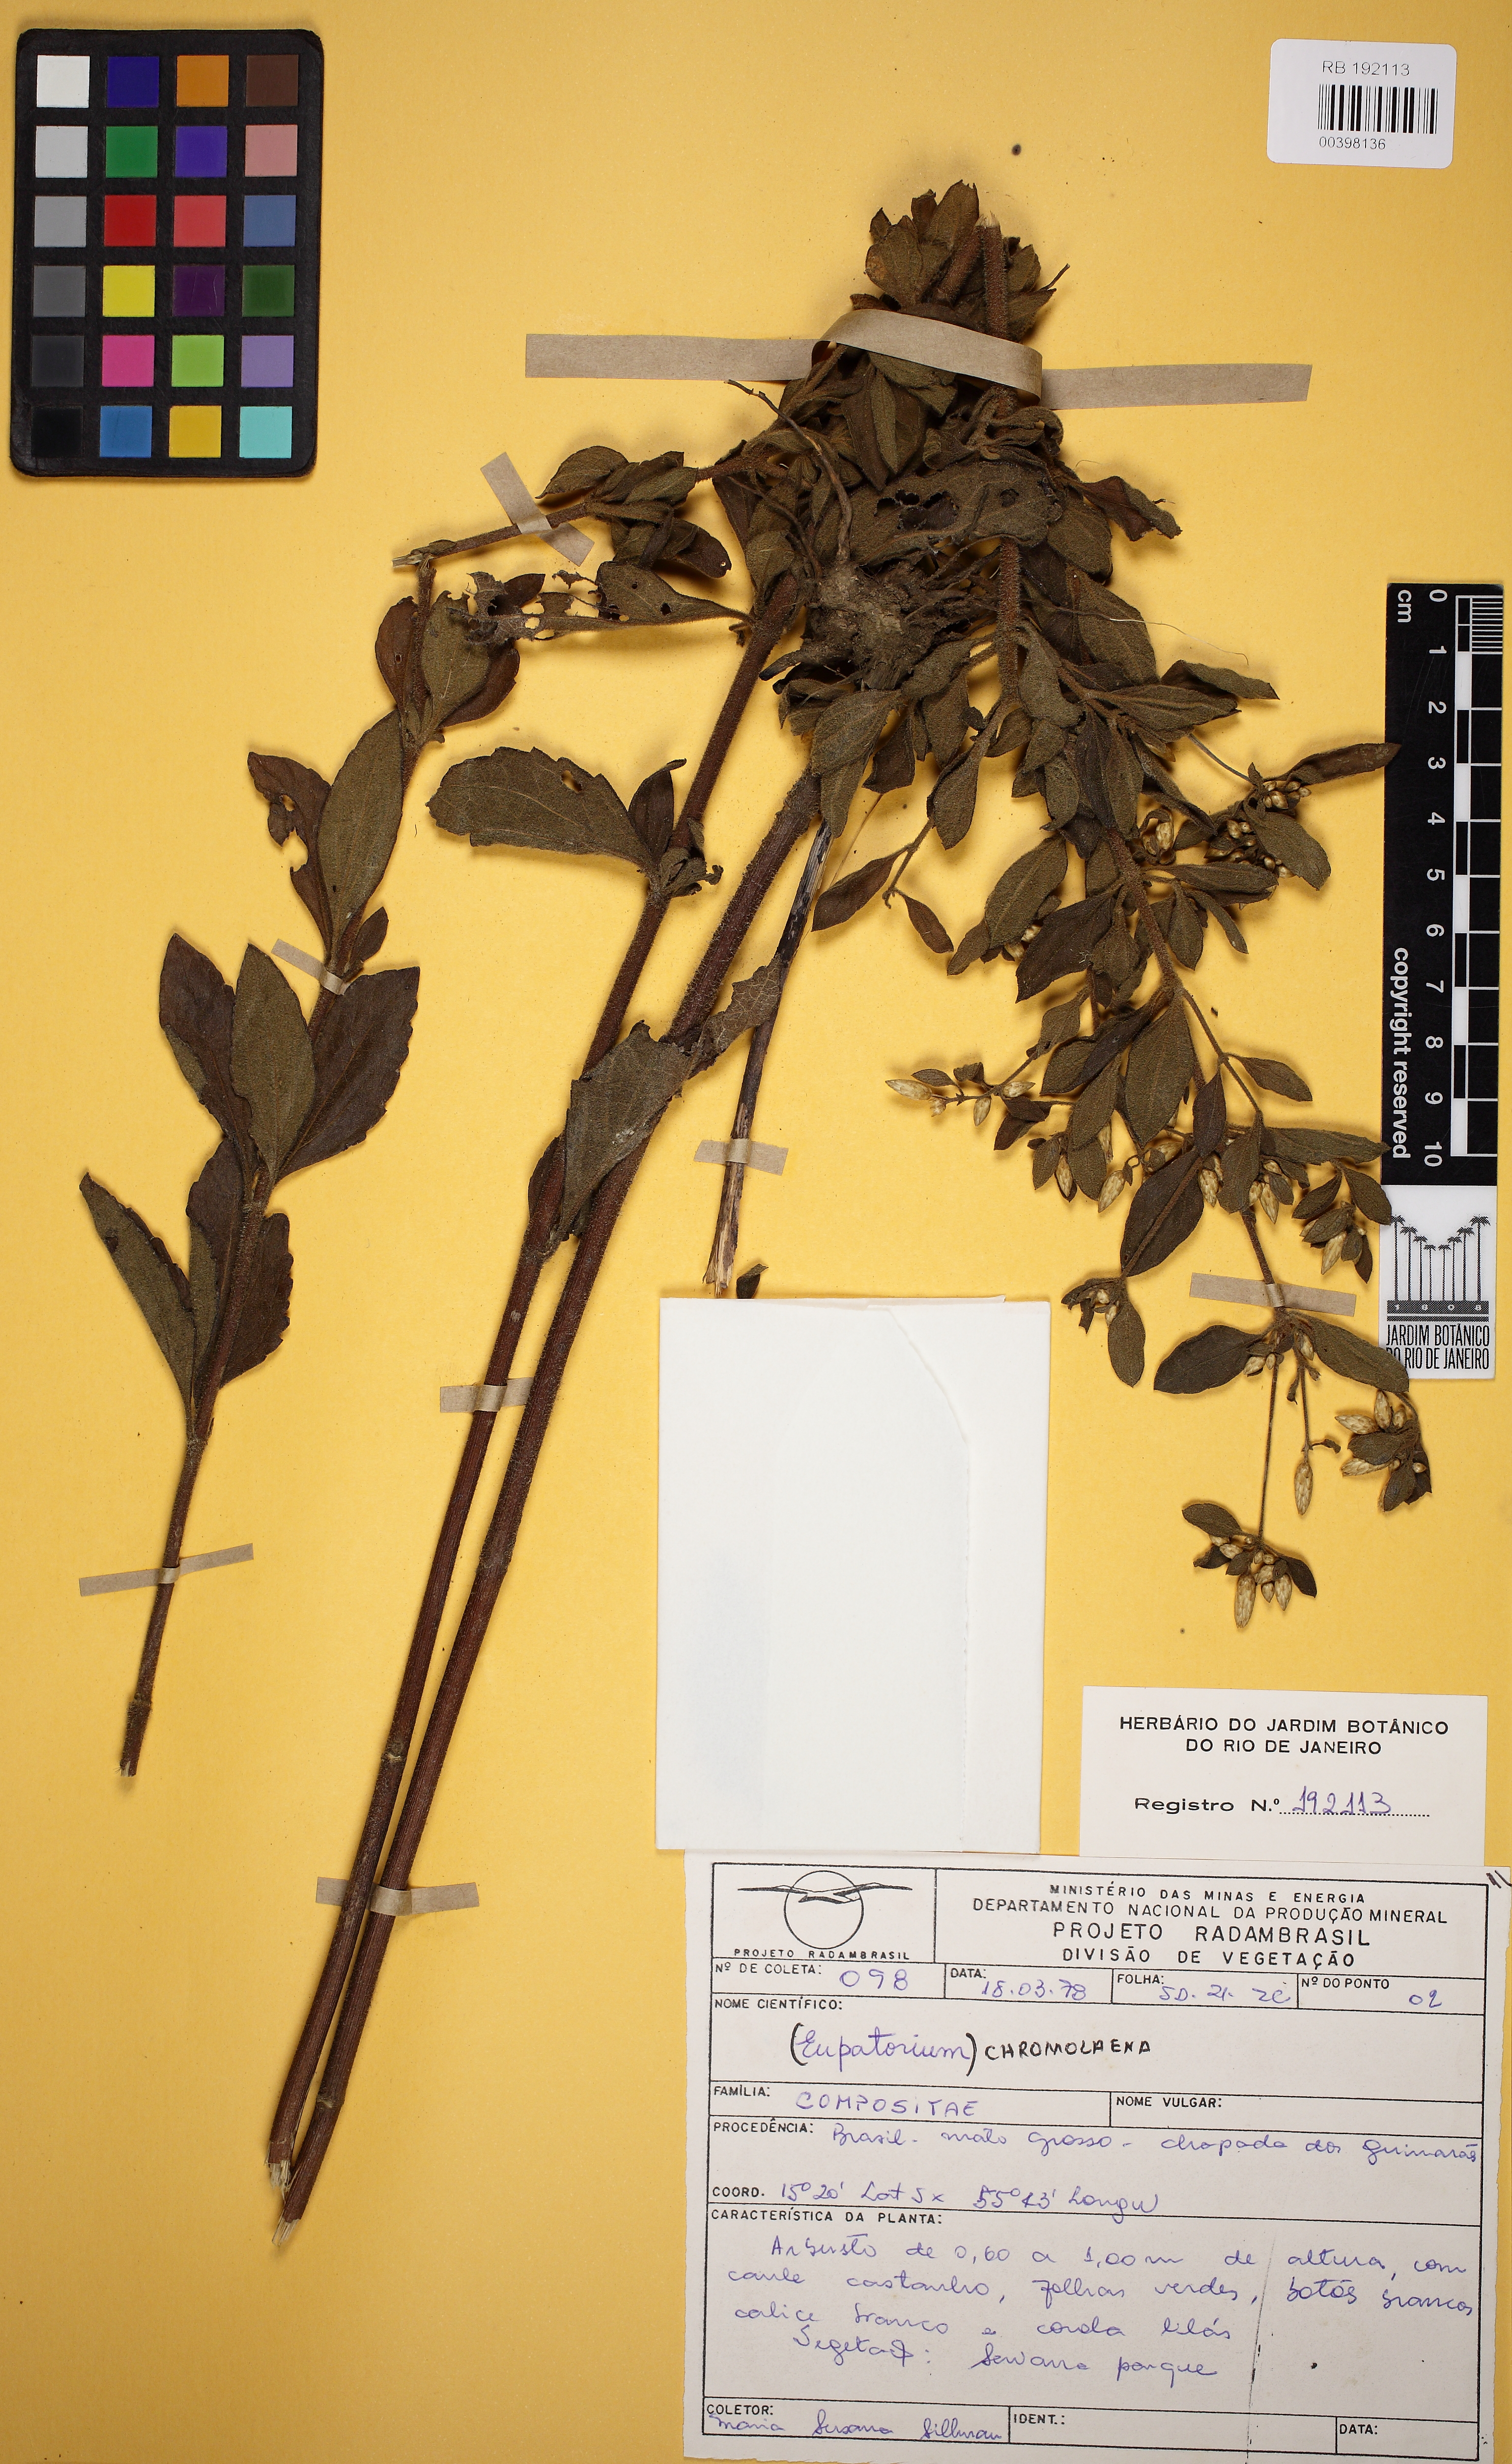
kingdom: Plantae
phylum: Tracheophyta
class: Magnoliopsida
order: Asterales
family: Asteraceae
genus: Chromolaena
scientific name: Chromolaena
